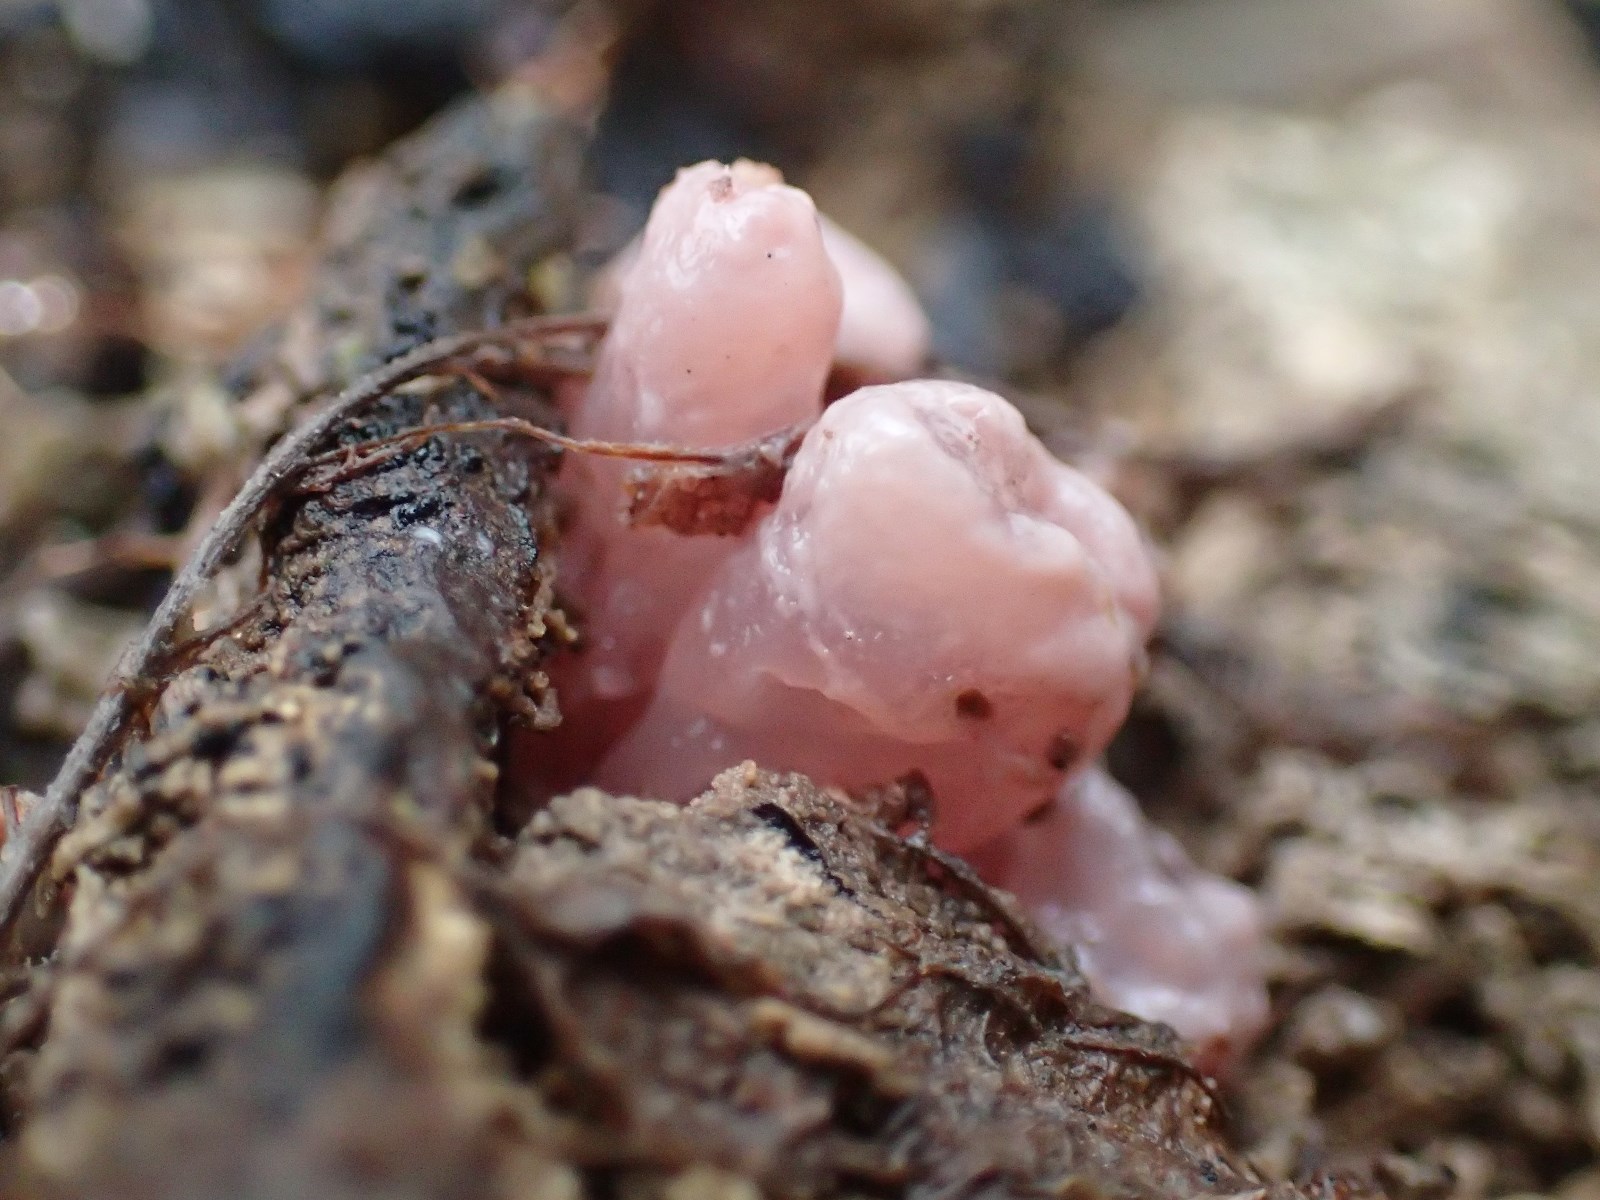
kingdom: Fungi
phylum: Ascomycota
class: Leotiomycetes
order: Helotiales
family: Gelatinodiscaceae
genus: Ascocoryne
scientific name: Ascocoryne sarcoides
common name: rødlilla sejskive
